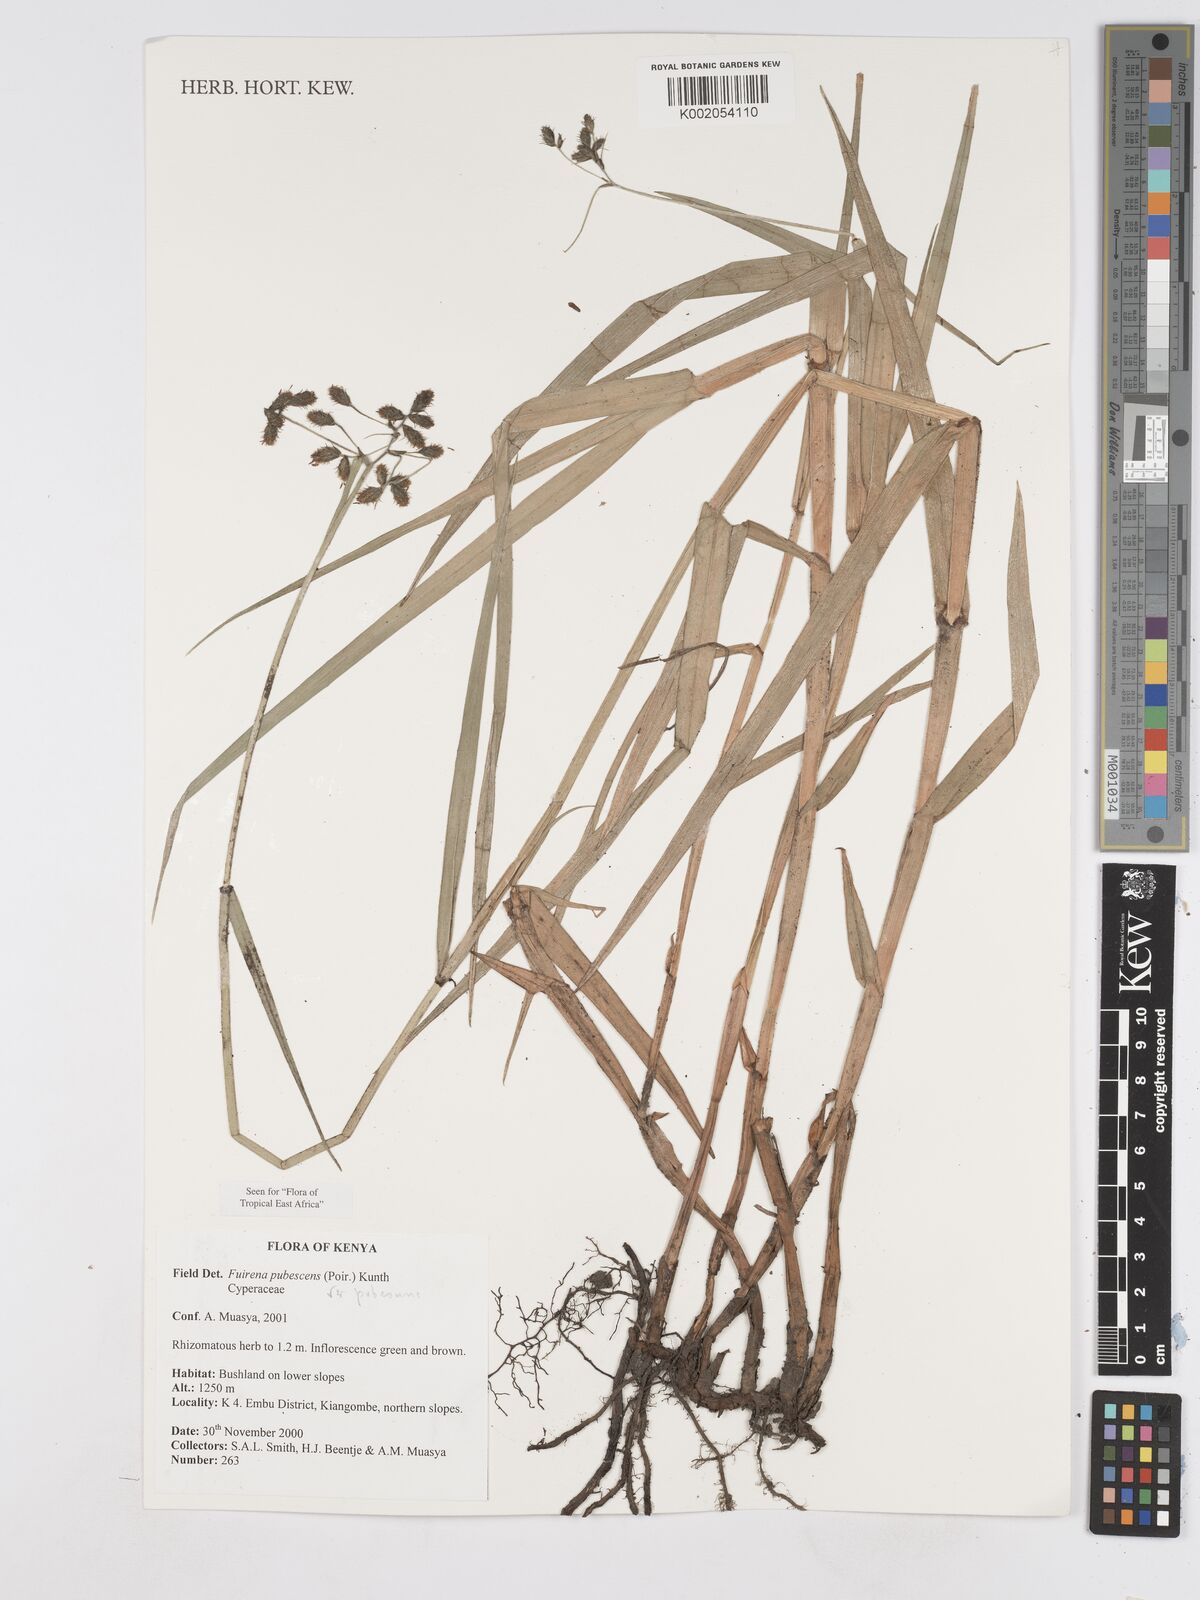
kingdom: Plantae
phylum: Tracheophyta
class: Liliopsida
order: Poales
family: Cyperaceae
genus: Fuirena
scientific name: Fuirena pubescens
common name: Hairy sedge
